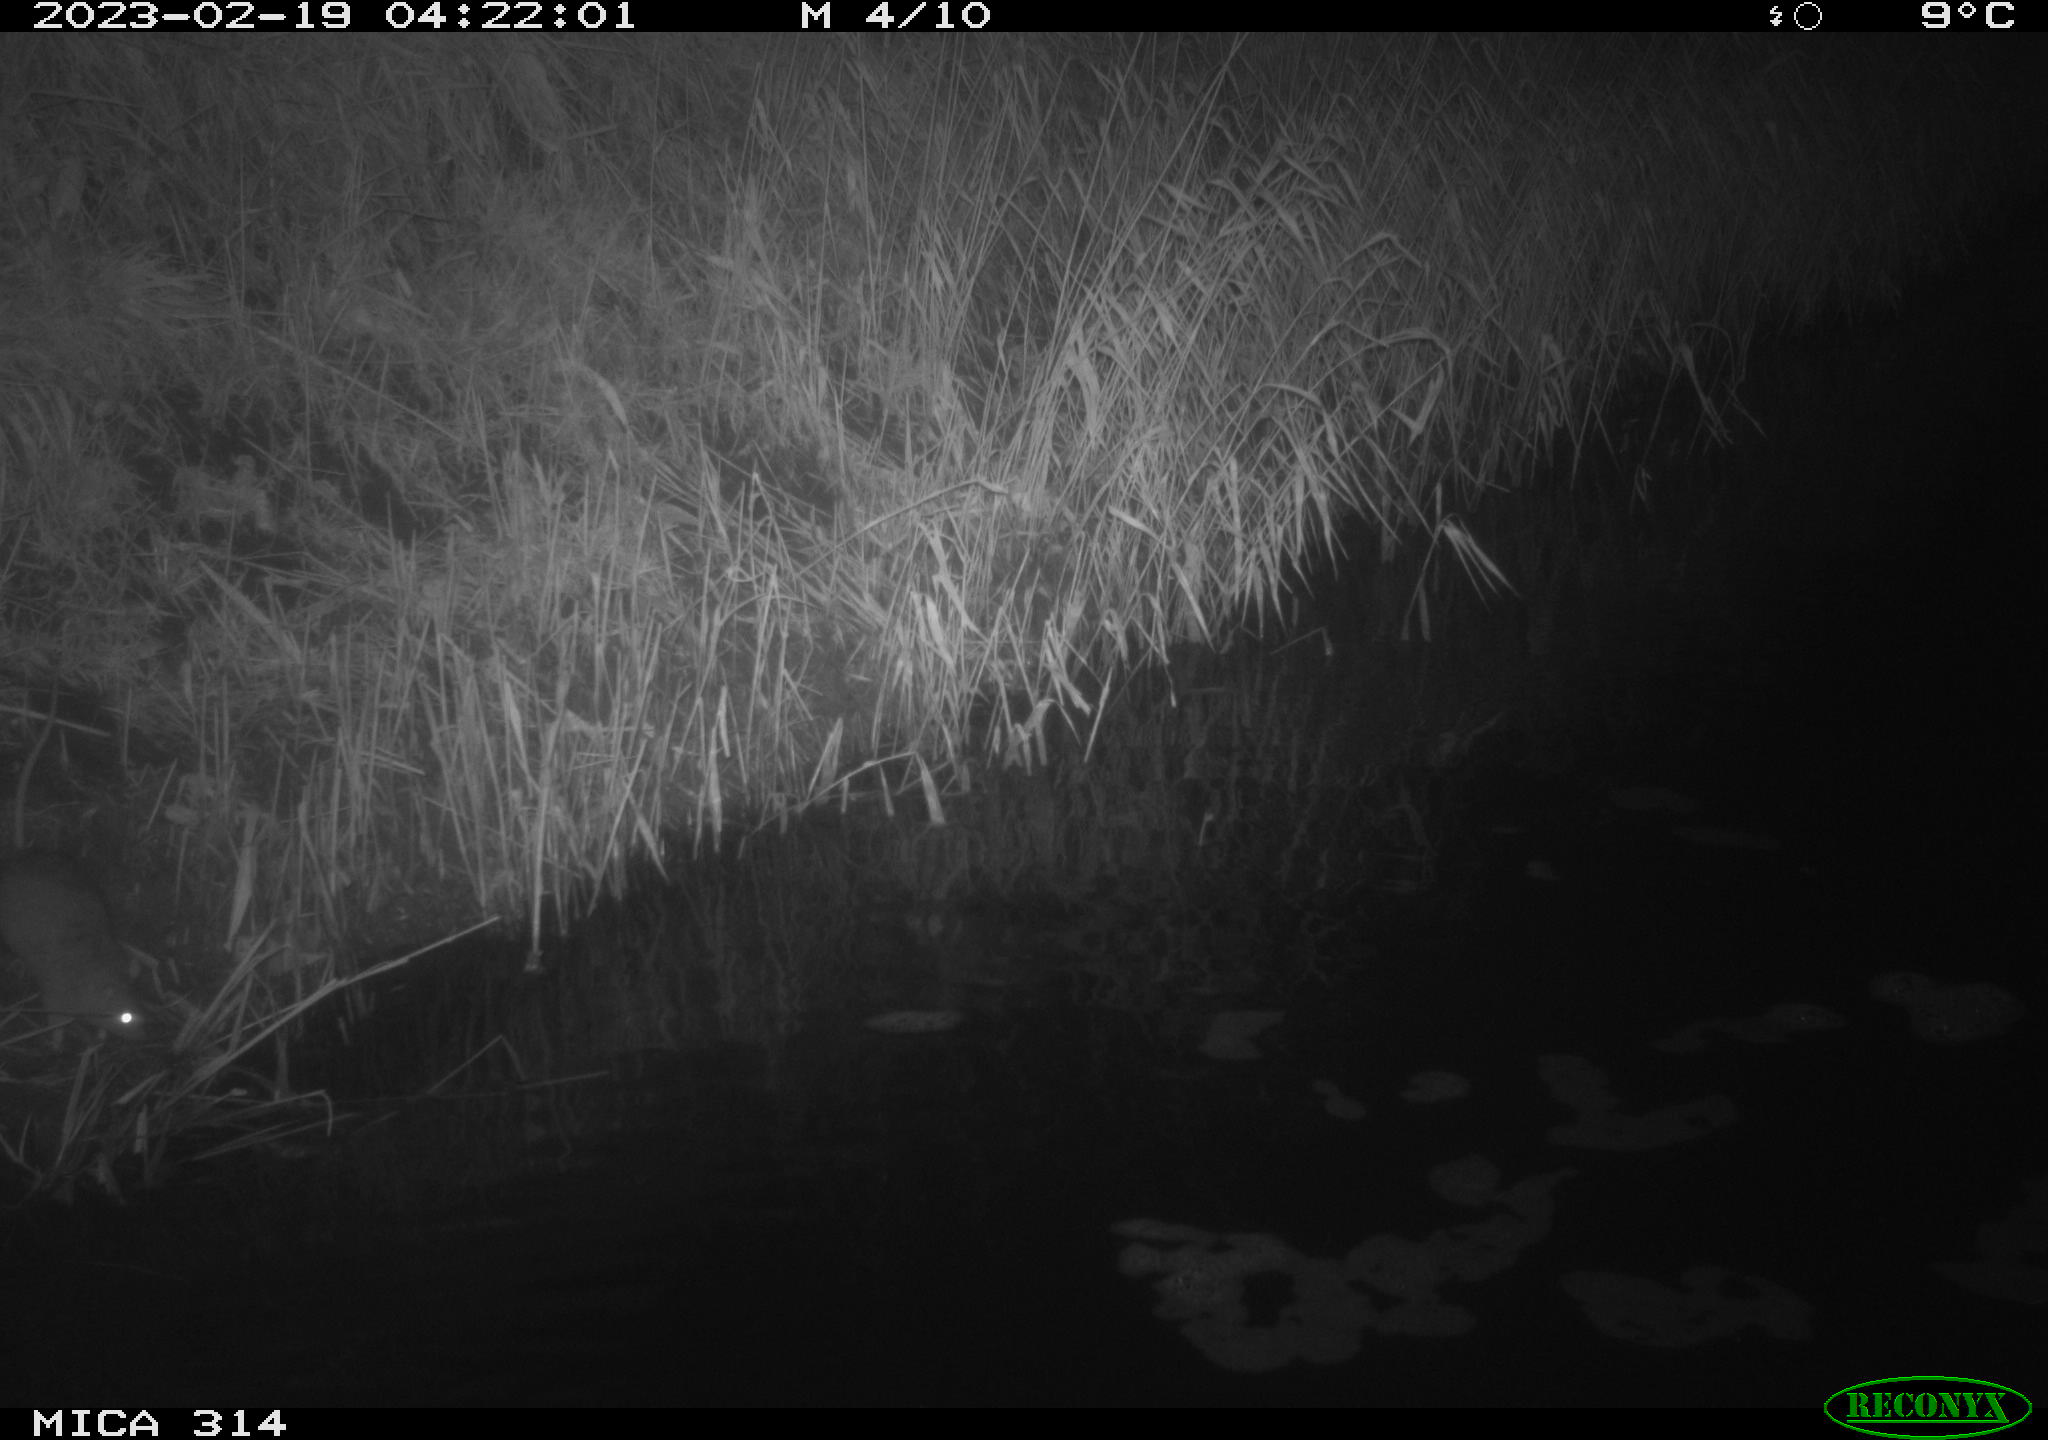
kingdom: Animalia
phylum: Chordata
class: Mammalia
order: Rodentia
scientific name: Rodentia
